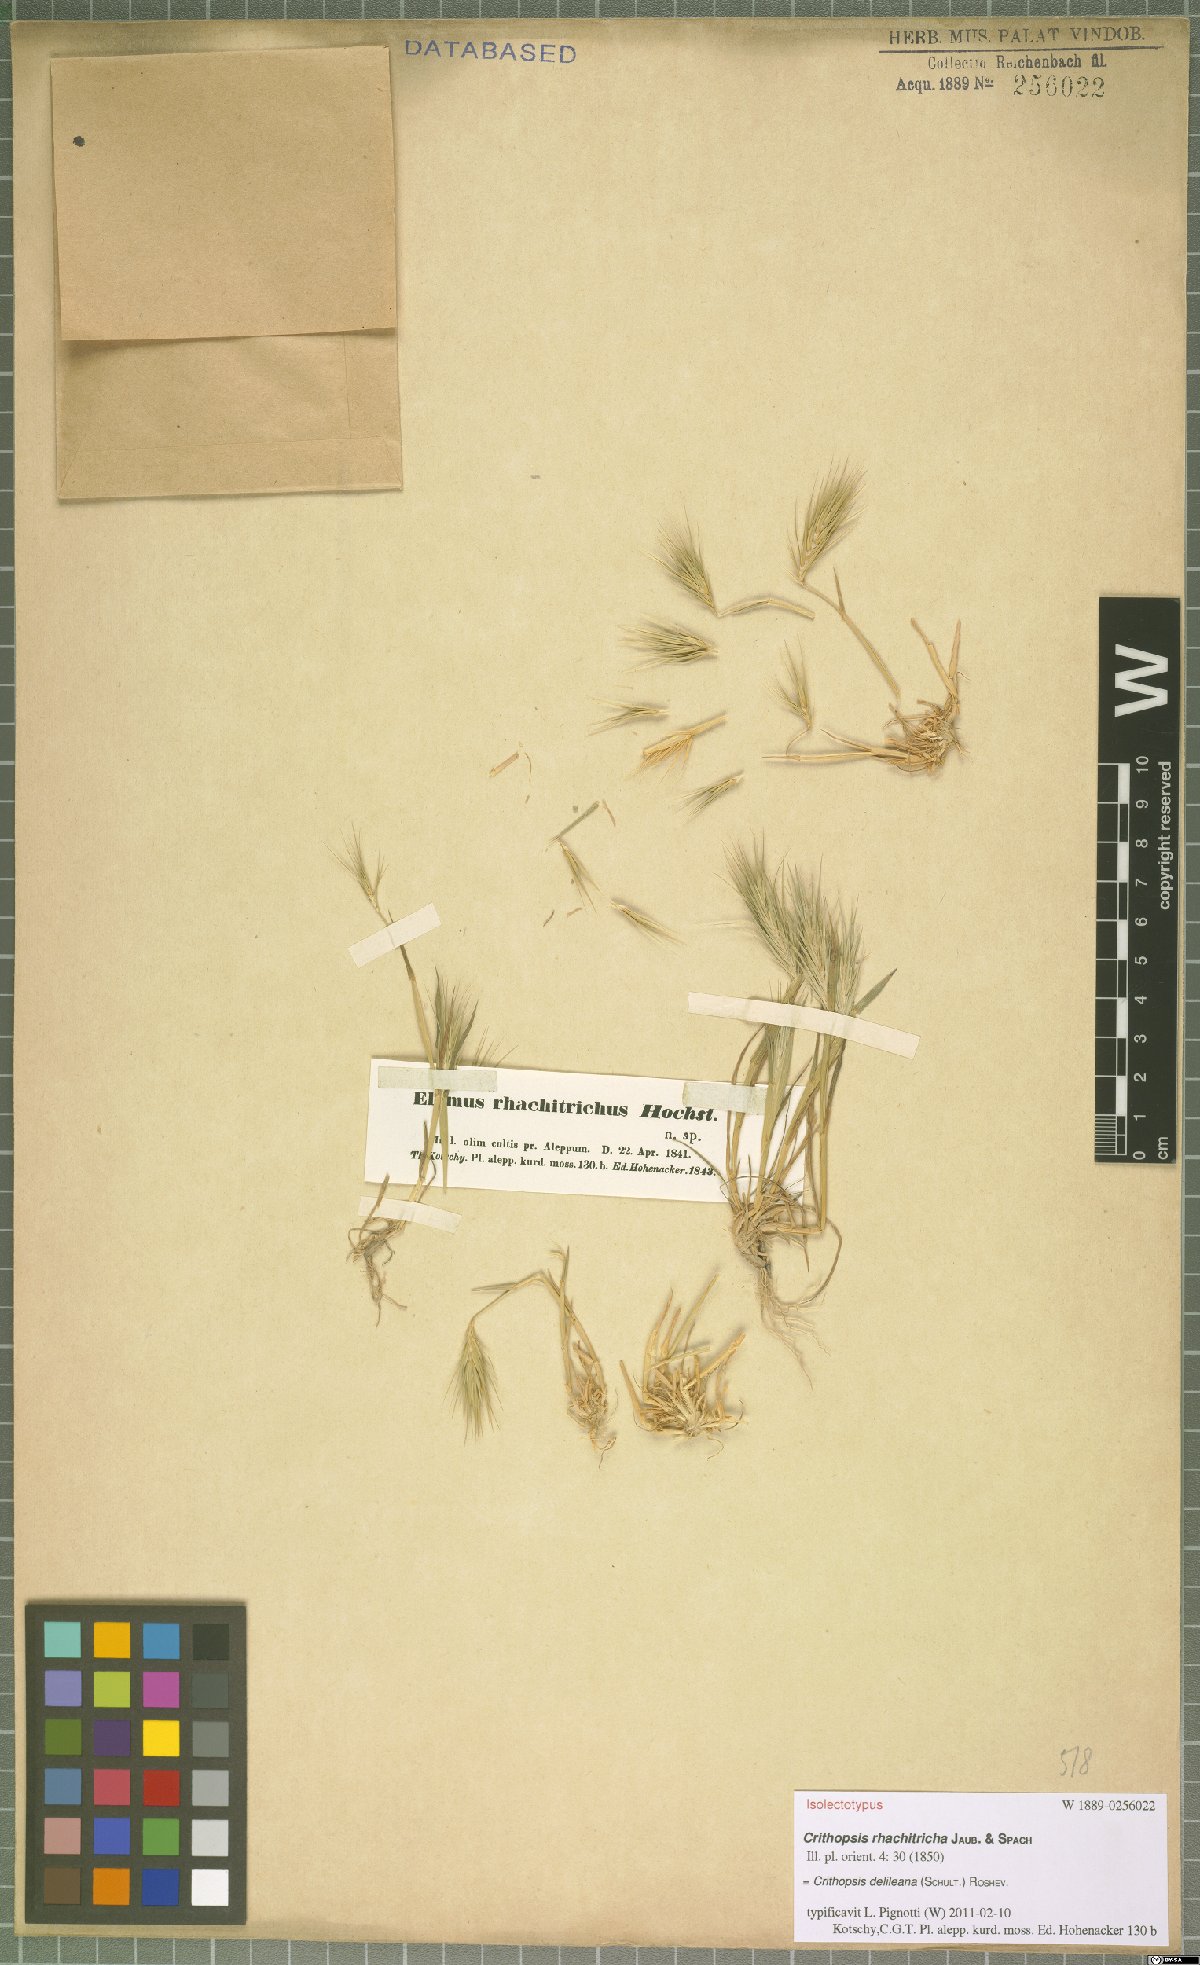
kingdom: Plantae
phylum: Tracheophyta
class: Liliopsida
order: Poales
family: Poaceae
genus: Crithopsis
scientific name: Crithopsis delileana
